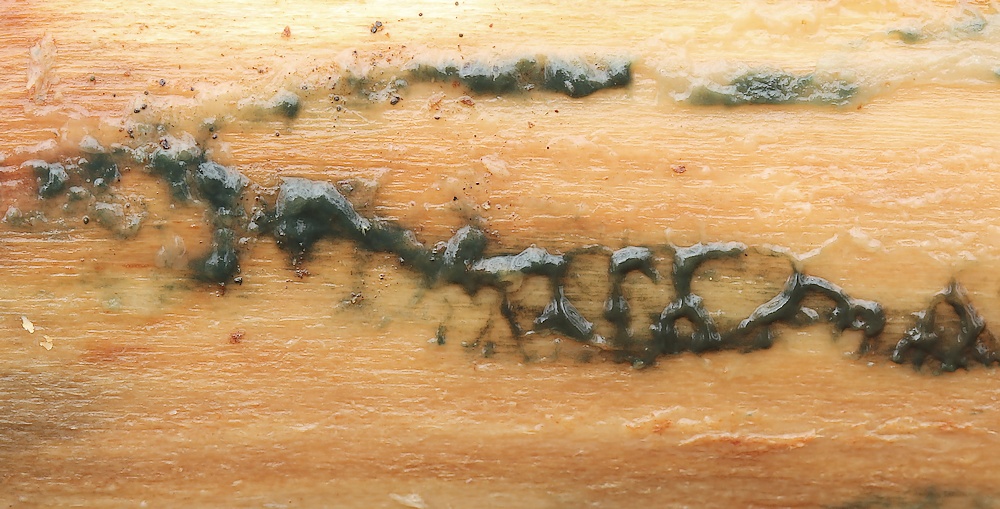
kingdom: Fungi
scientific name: Fungi
